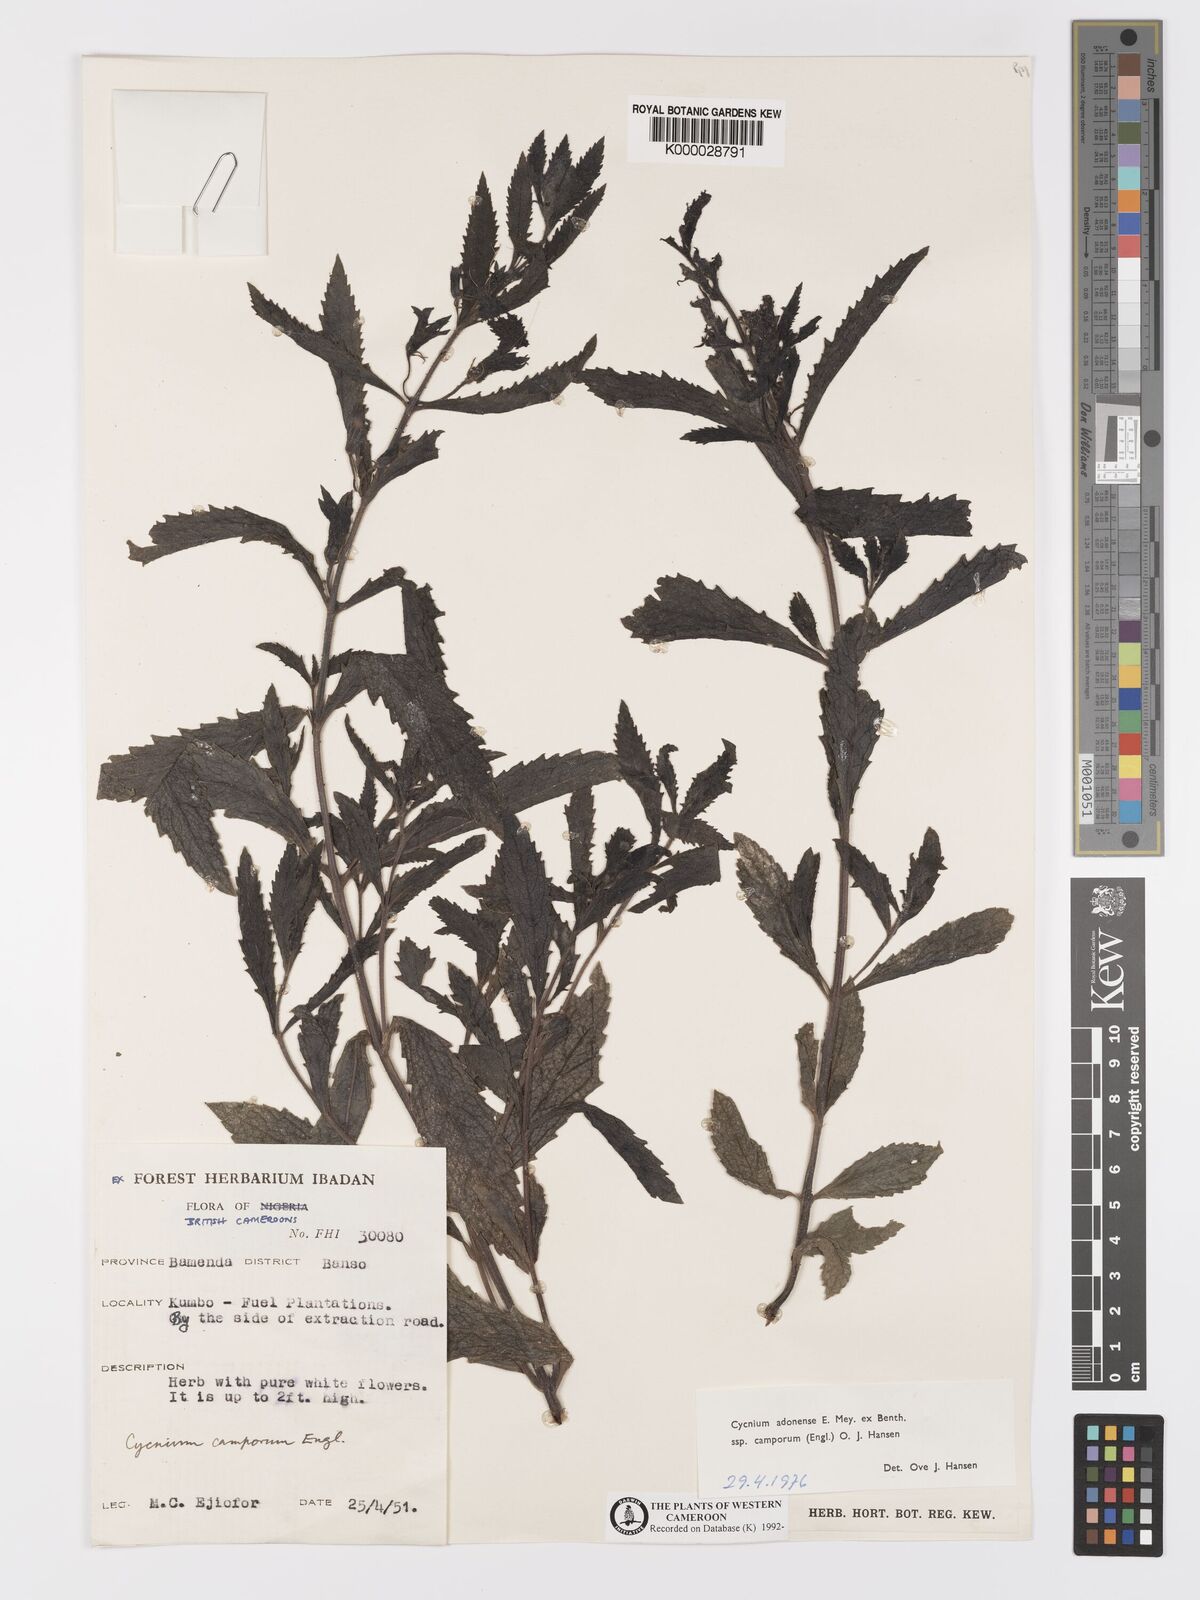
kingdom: Plantae
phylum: Tracheophyta
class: Magnoliopsida
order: Lamiales
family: Orobanchaceae
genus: Cycnium
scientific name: Cycnium adoense
